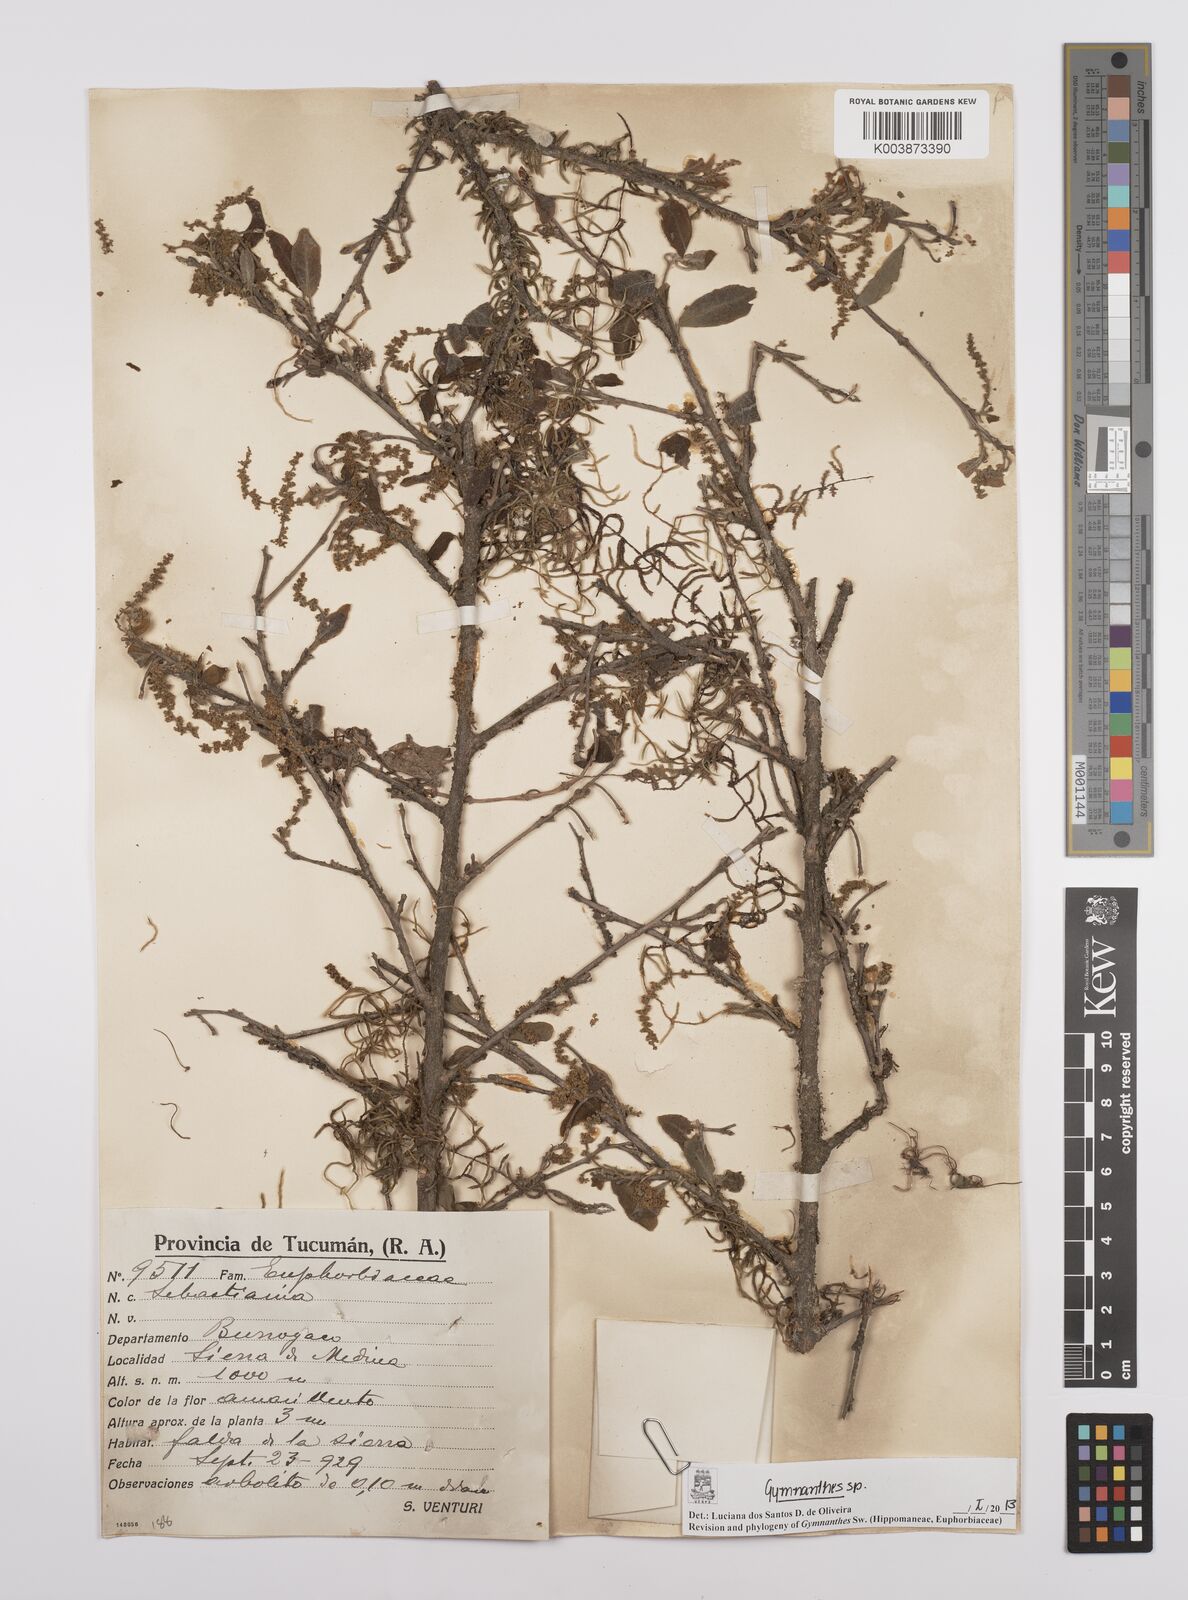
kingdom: Plantae
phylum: Tracheophyta
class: Magnoliopsida
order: Malpighiales
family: Euphorbiaceae
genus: Gymnanthes
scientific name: Gymnanthes
